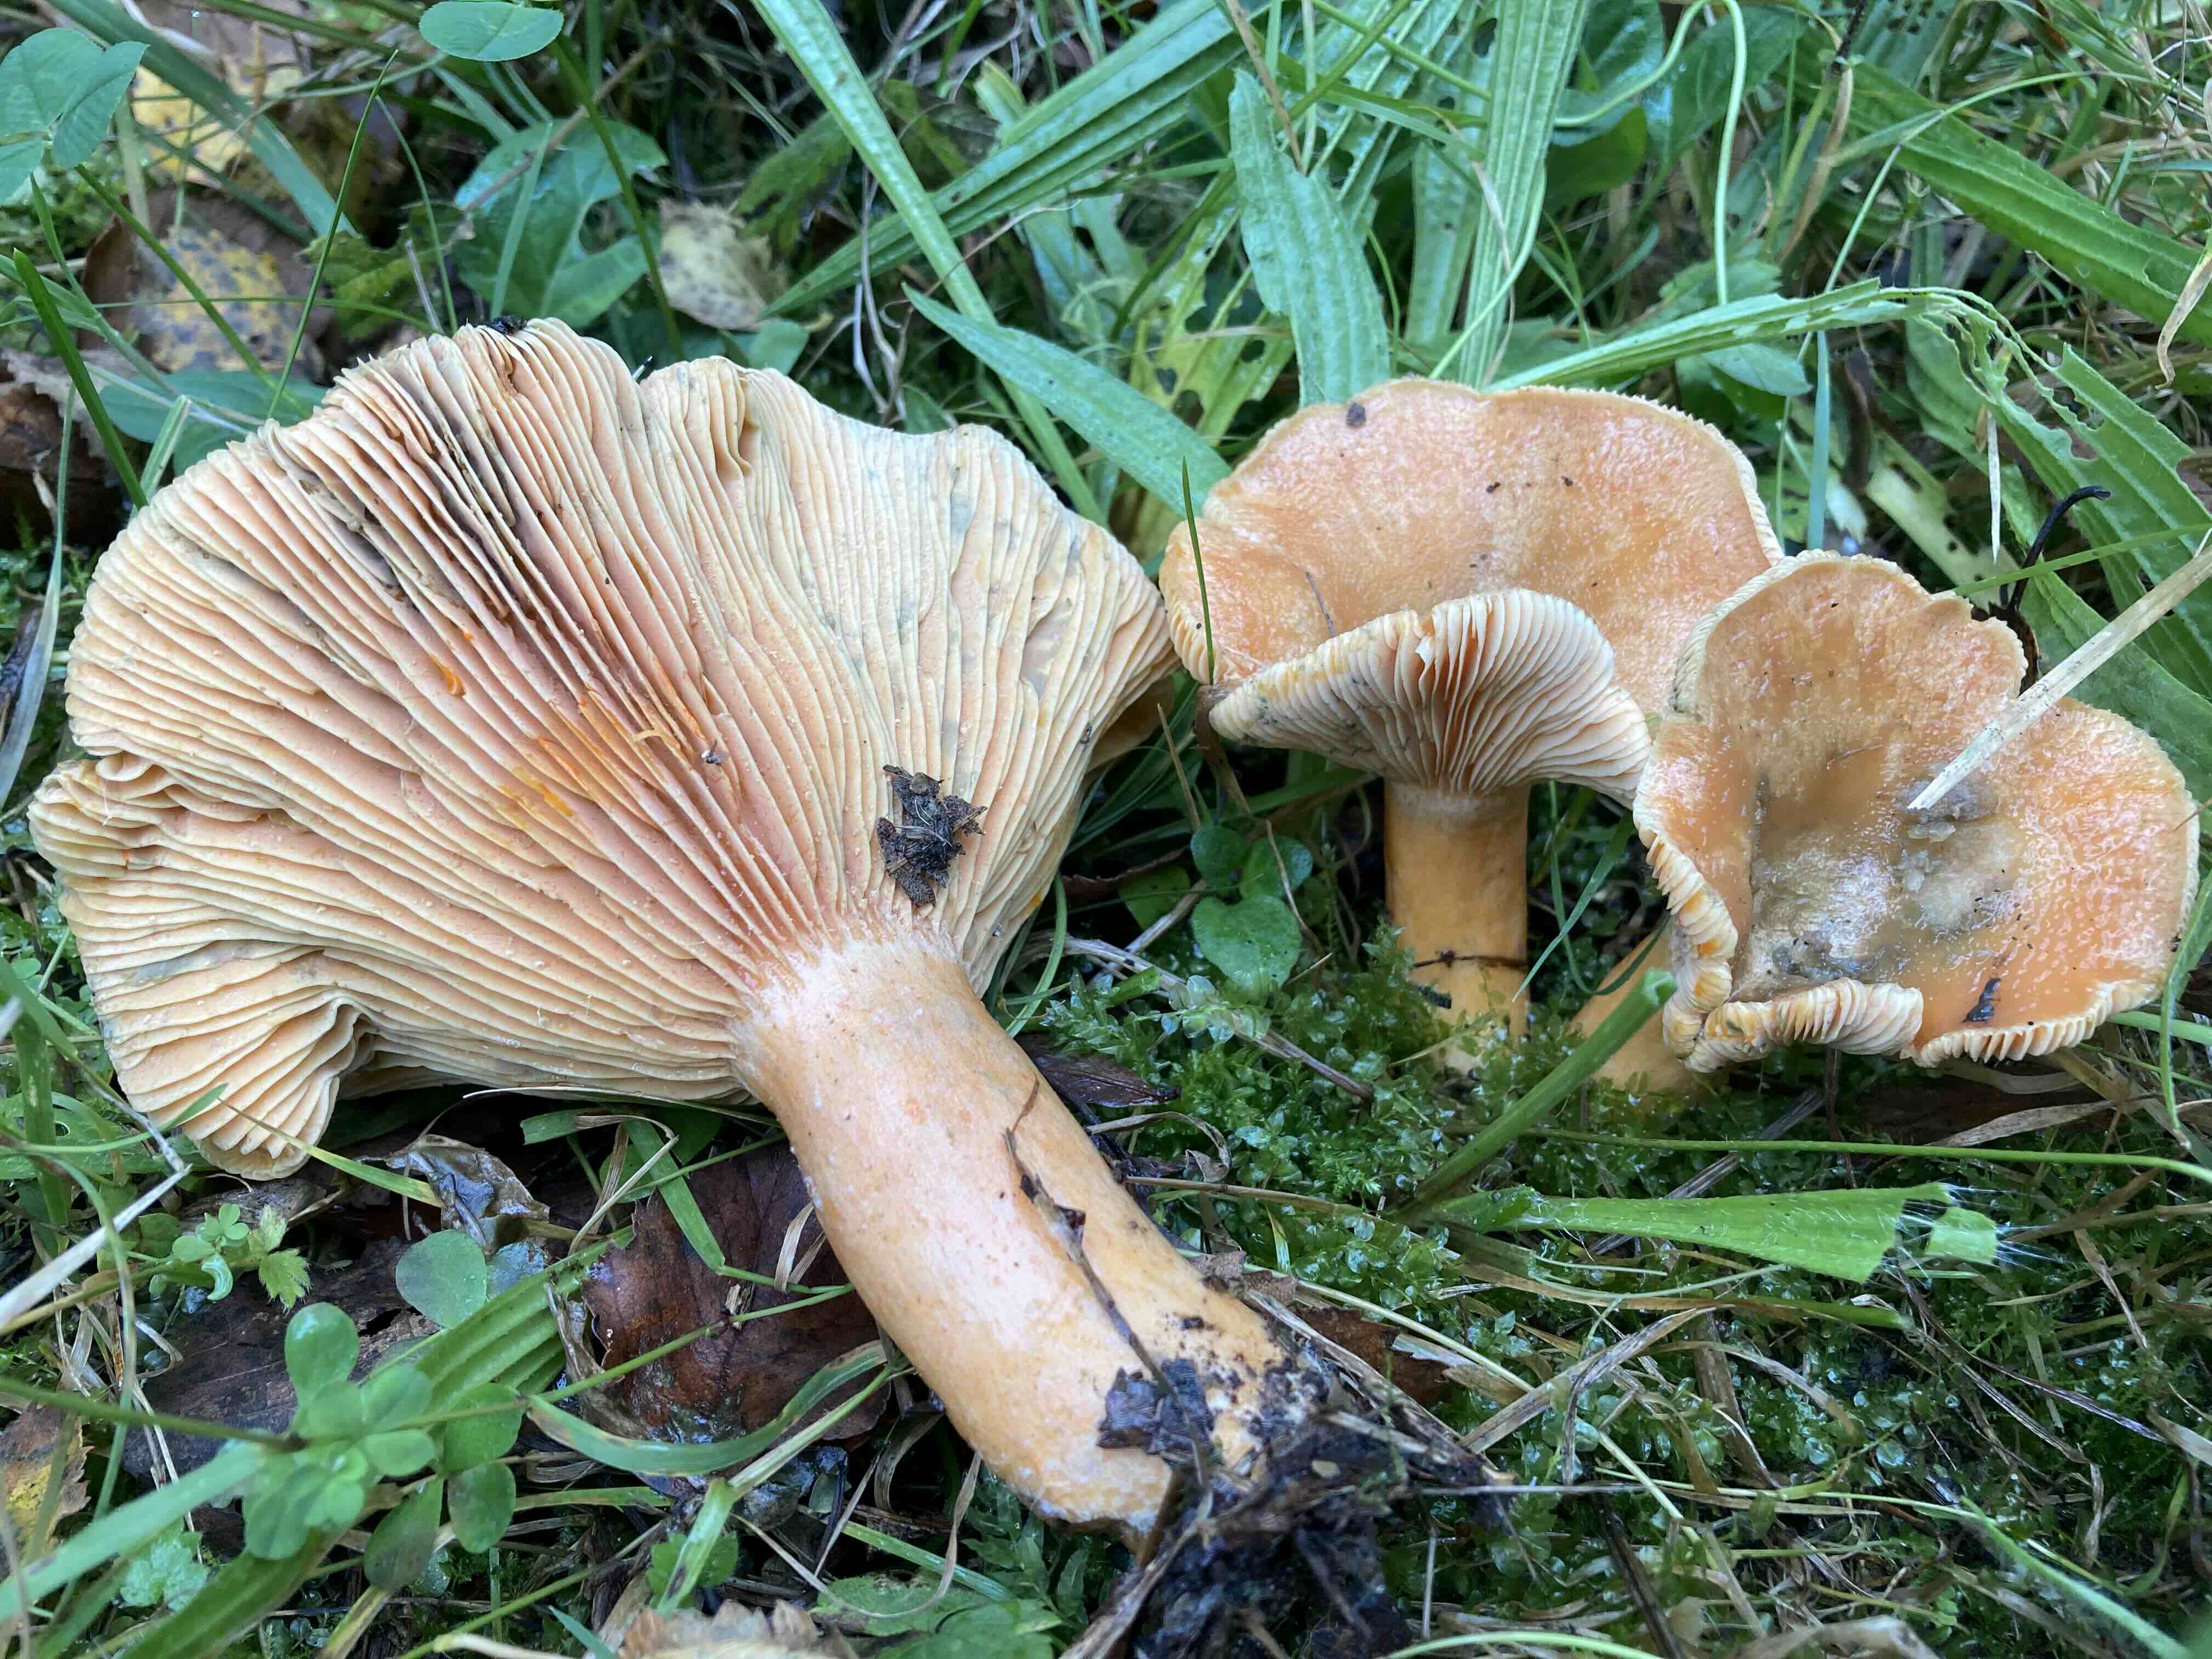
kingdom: Fungi
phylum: Basidiomycota
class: Agaricomycetes
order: Russulales
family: Russulaceae
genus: Lactarius
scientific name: Lactarius deterrimus
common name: gran-mælkehat
